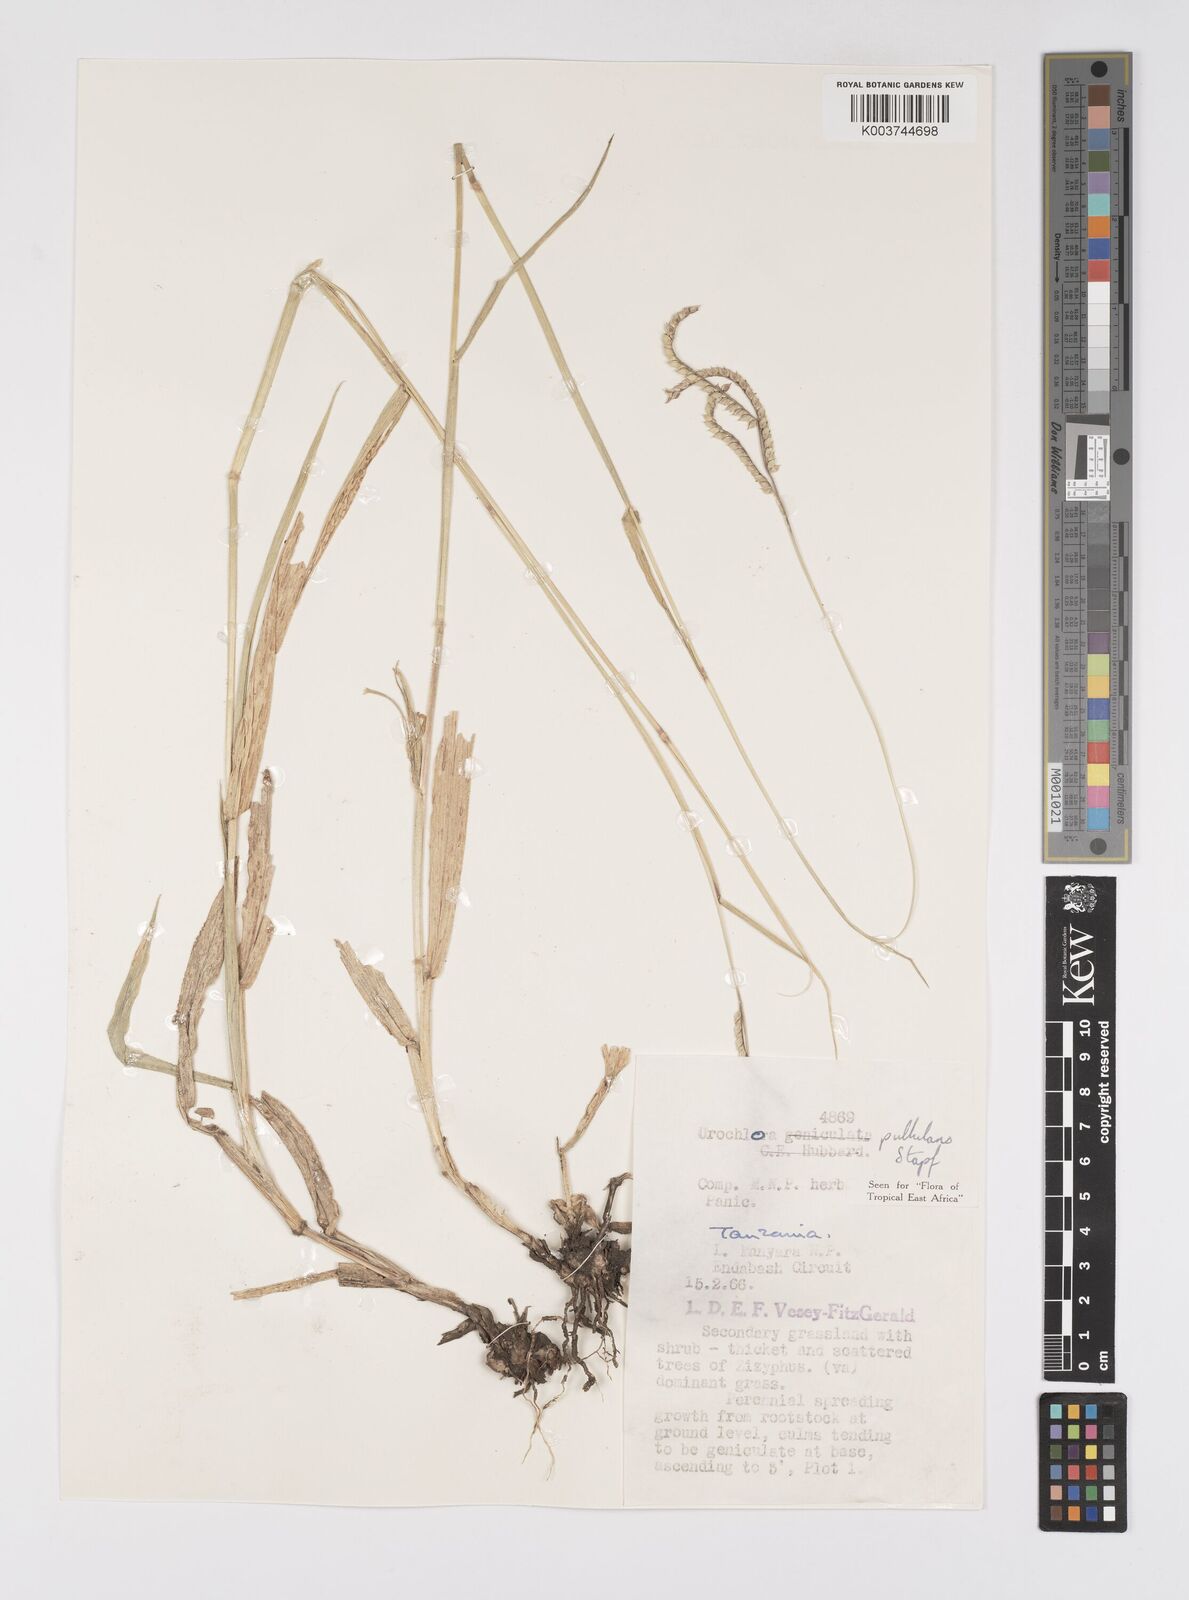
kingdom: Plantae
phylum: Tracheophyta
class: Liliopsida
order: Poales
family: Poaceae
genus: Urochloa
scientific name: Urochloa trichopus
